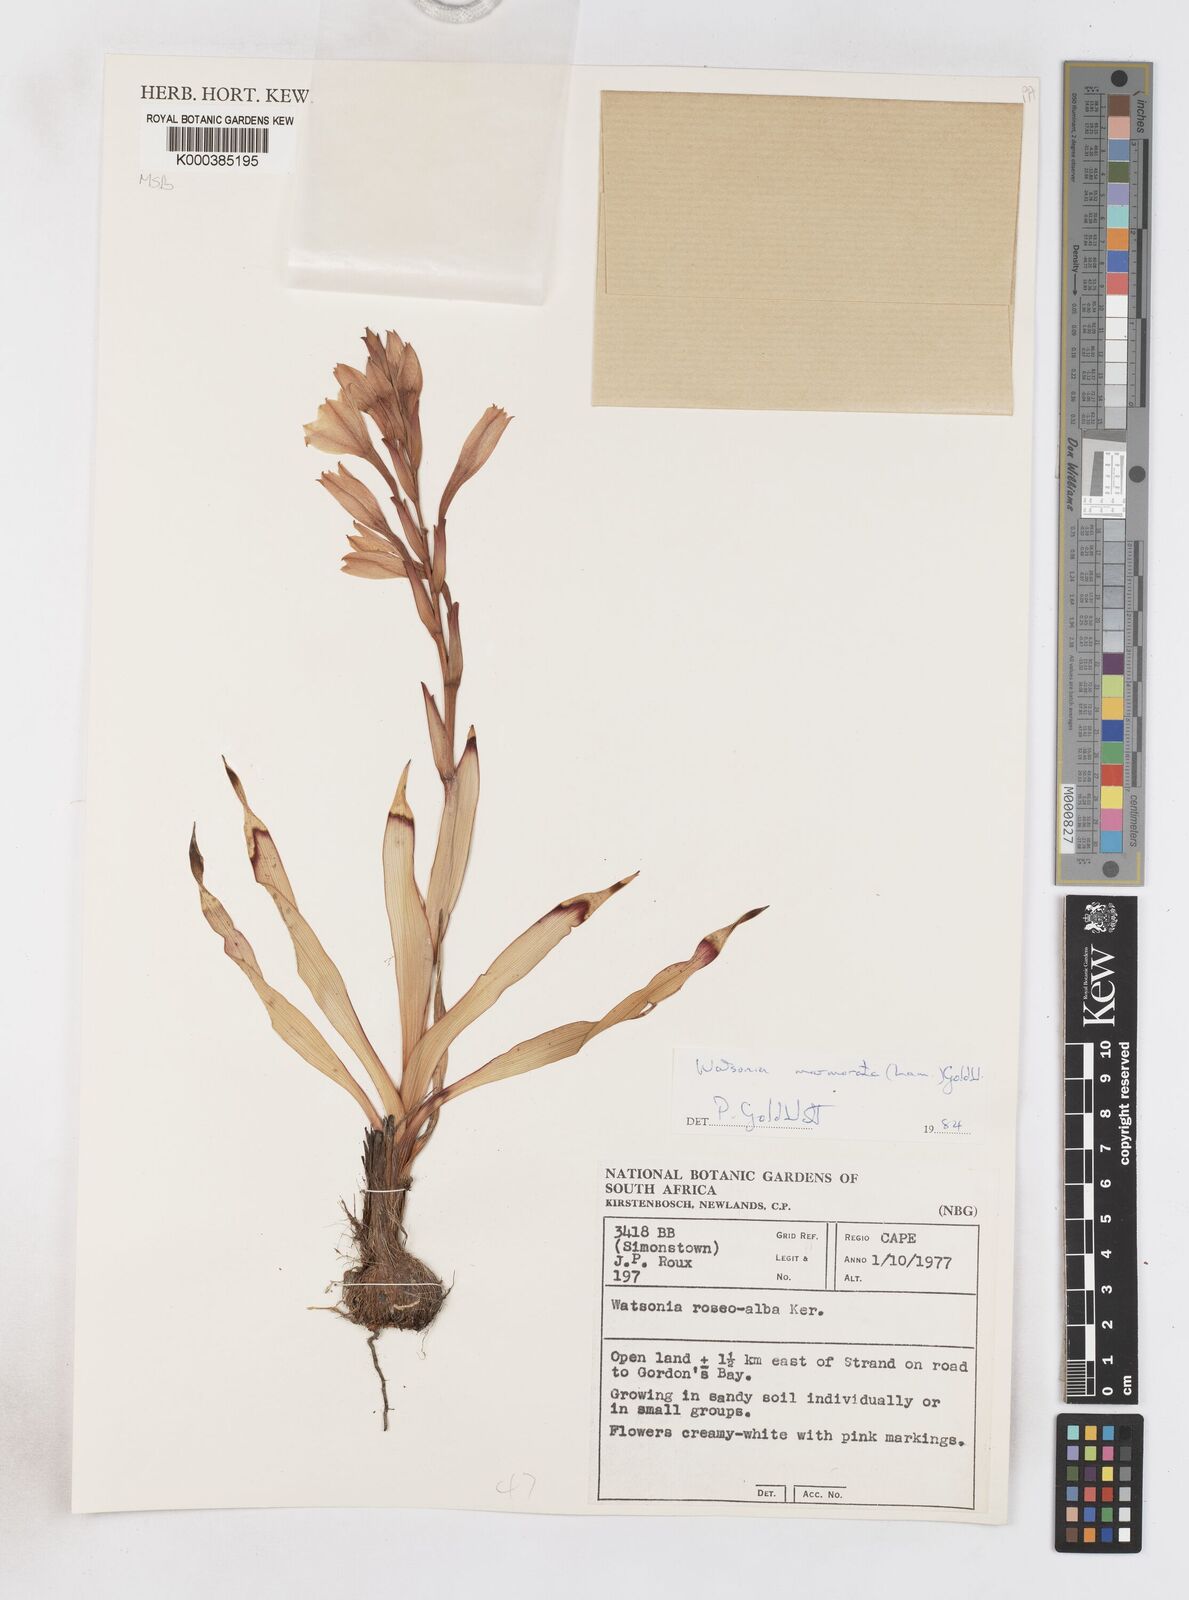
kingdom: Plantae
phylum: Tracheophyta
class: Liliopsida
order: Asparagales
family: Iridaceae
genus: Watsonia
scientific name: Watsonia humilis
